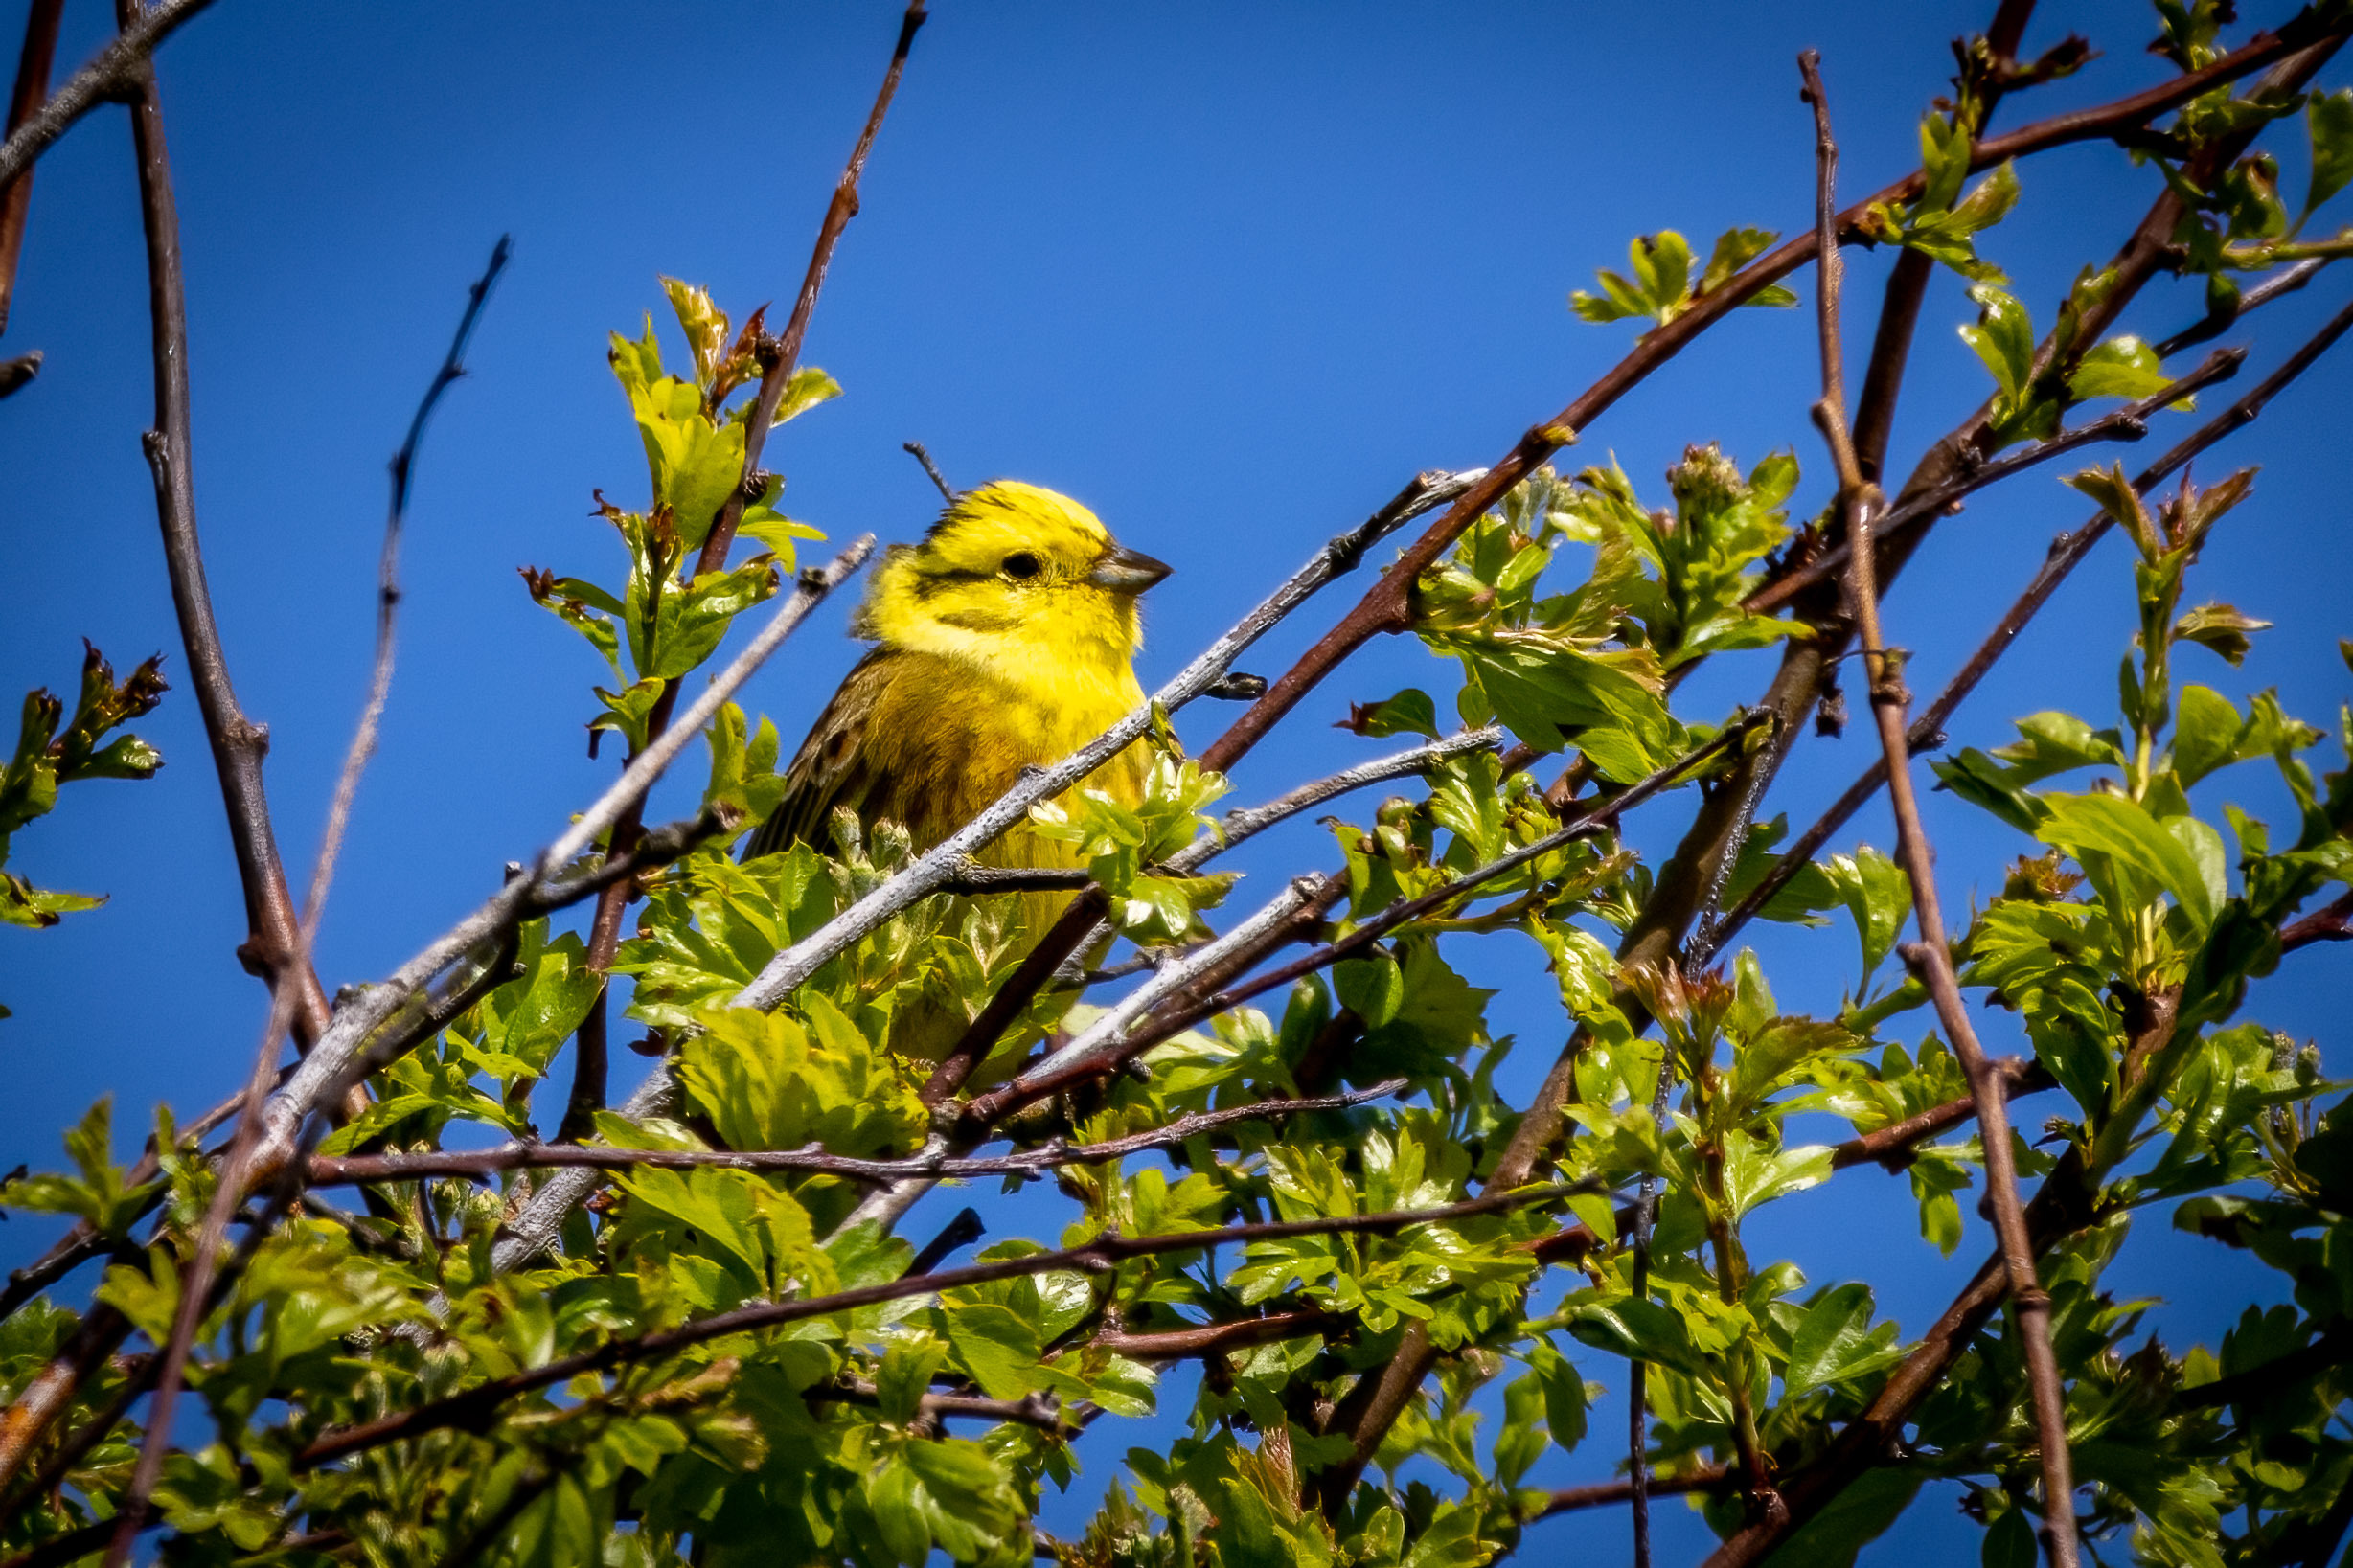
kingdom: Animalia
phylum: Chordata
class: Aves
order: Passeriformes
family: Emberizidae
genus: Emberiza
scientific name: Emberiza citrinella
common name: Gulspurv
